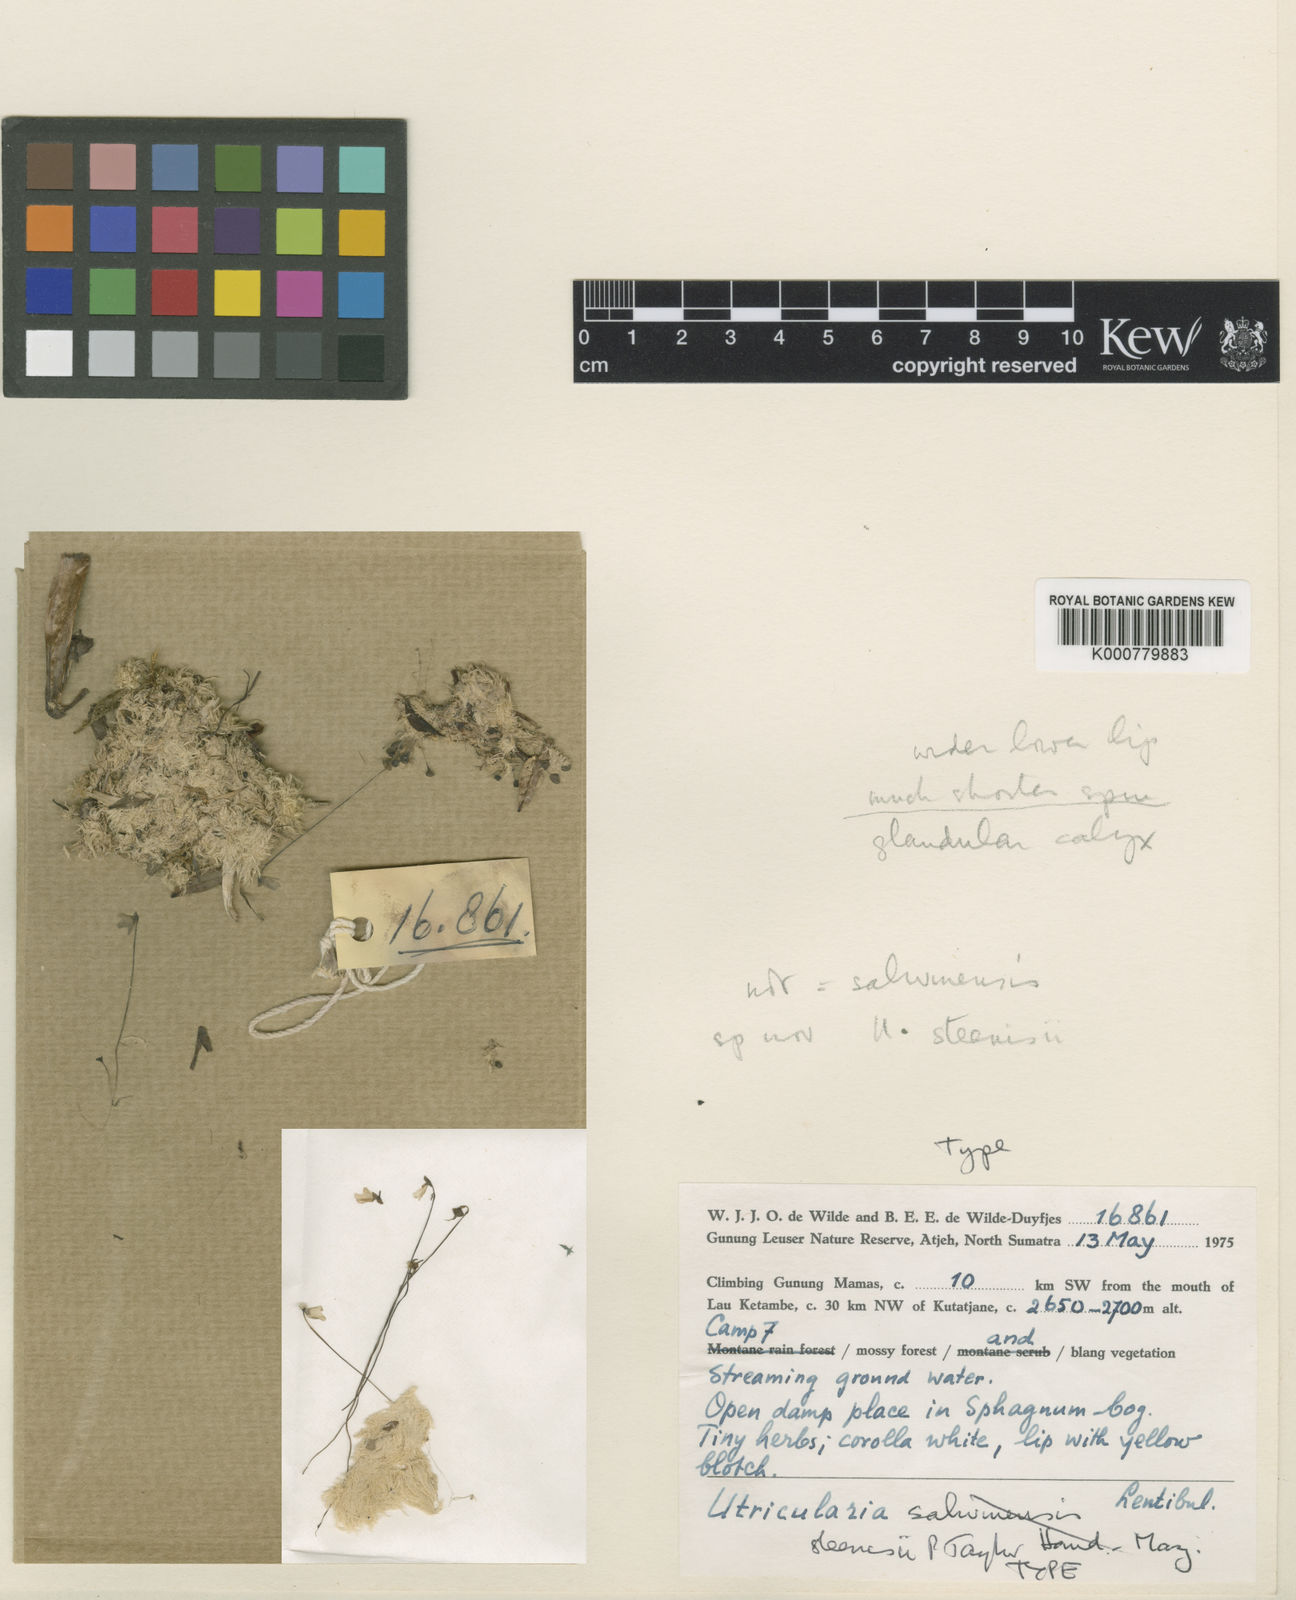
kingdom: Plantae
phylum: Tracheophyta
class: Magnoliopsida
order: Lamiales
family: Lentibulariaceae
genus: Utricularia
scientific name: Utricularia steenisii
